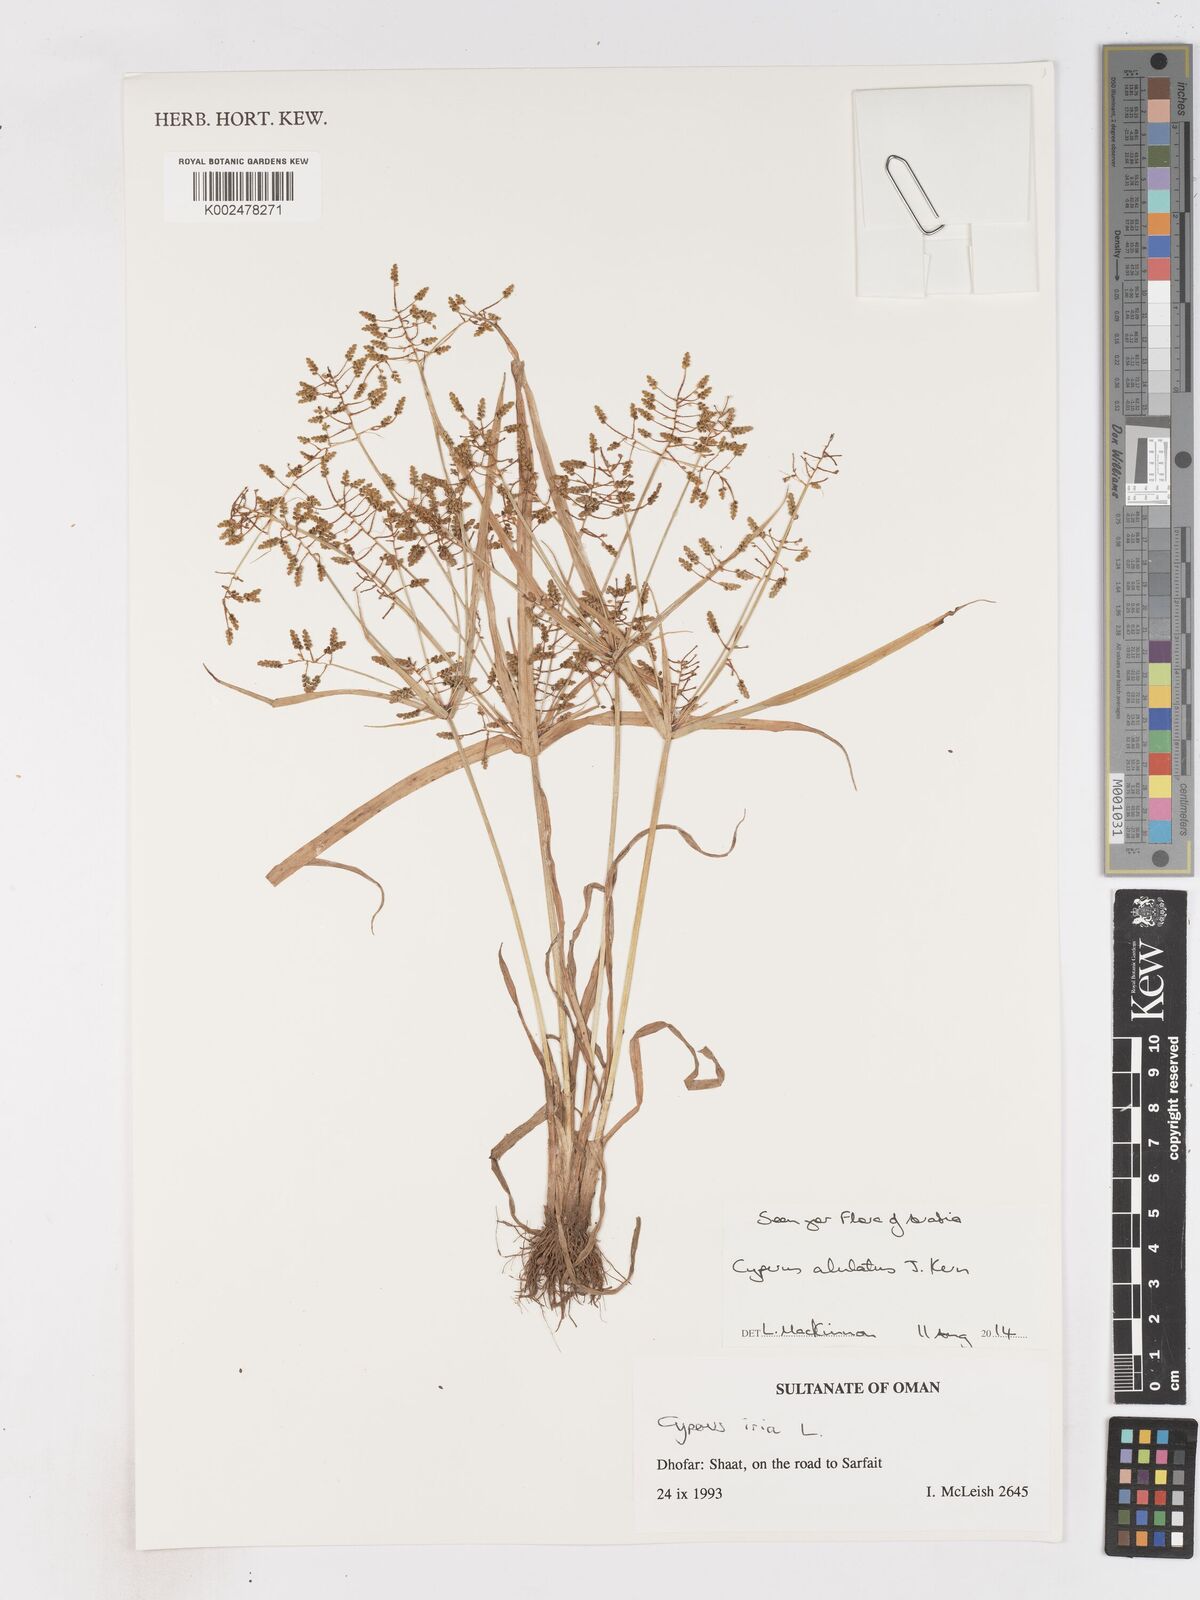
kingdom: Plantae
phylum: Tracheophyta
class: Liliopsida
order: Poales
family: Cyperaceae
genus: Cyperus
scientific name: Cyperus alulatus
